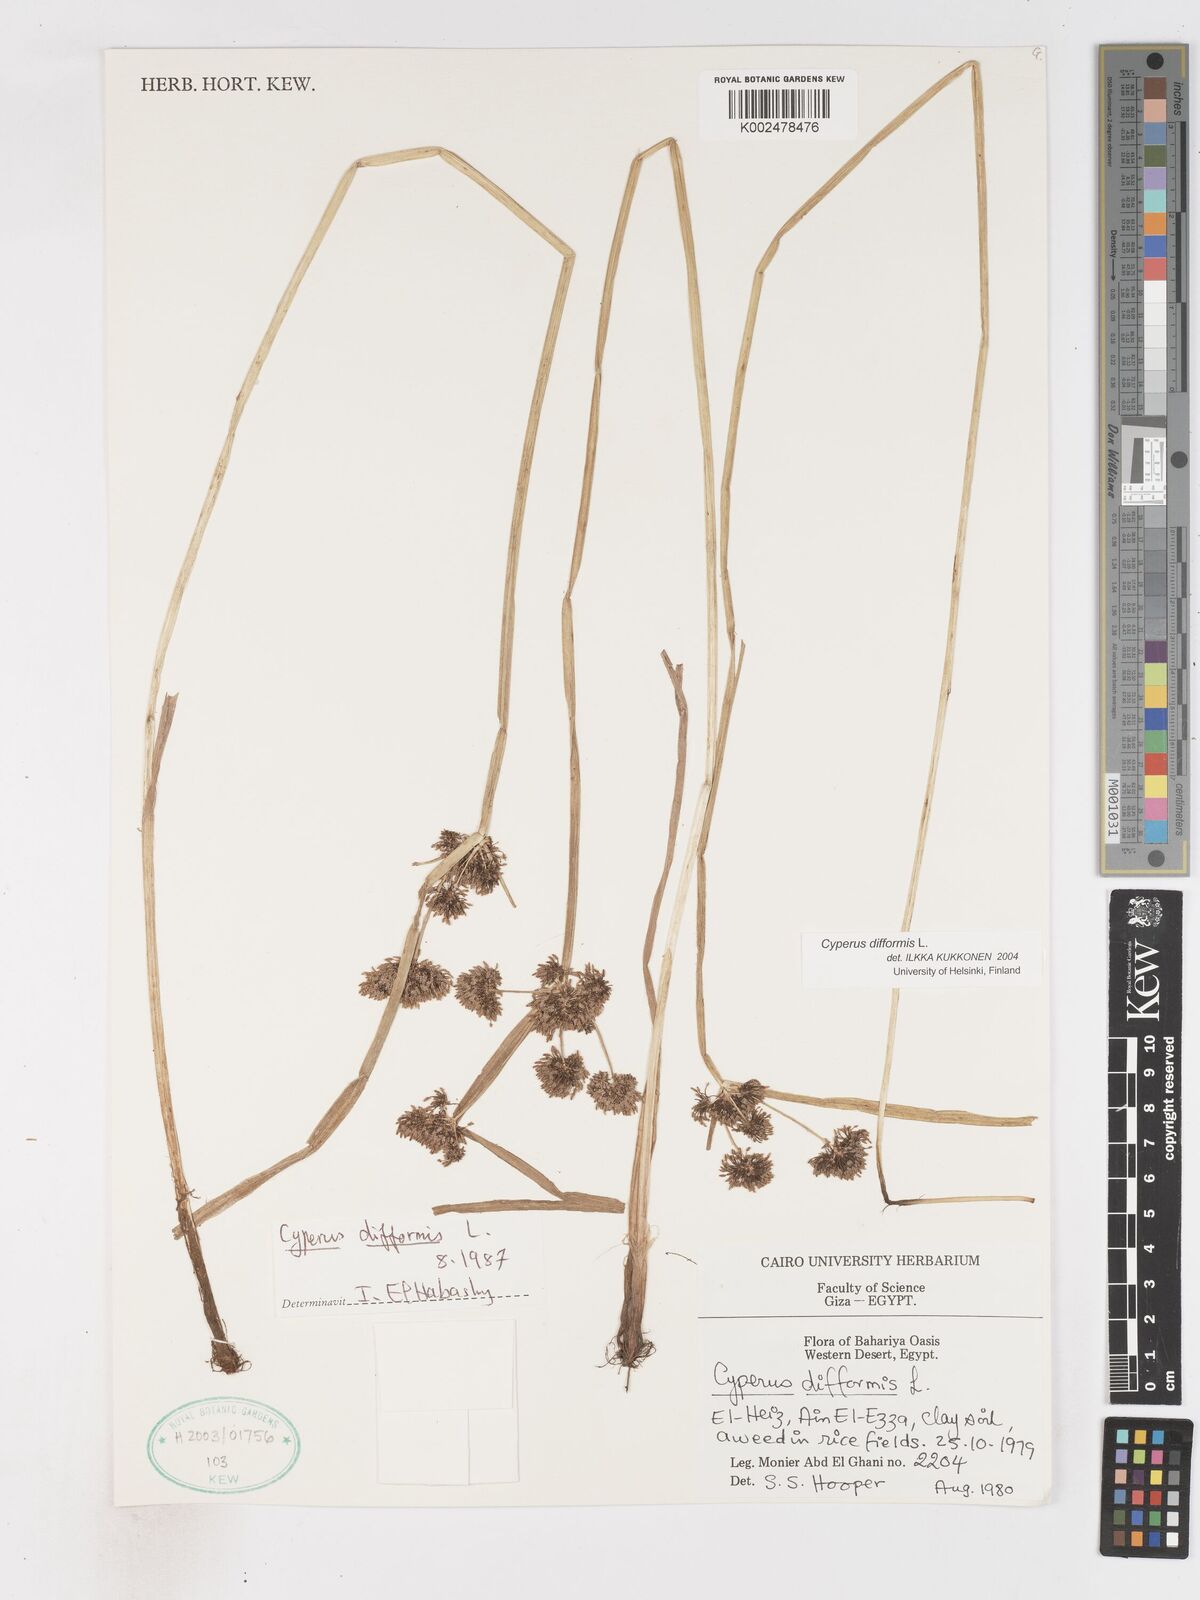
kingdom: Plantae
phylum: Tracheophyta
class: Liliopsida
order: Poales
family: Cyperaceae
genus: Cyperus
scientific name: Cyperus difformis
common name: Variable flatsedge
